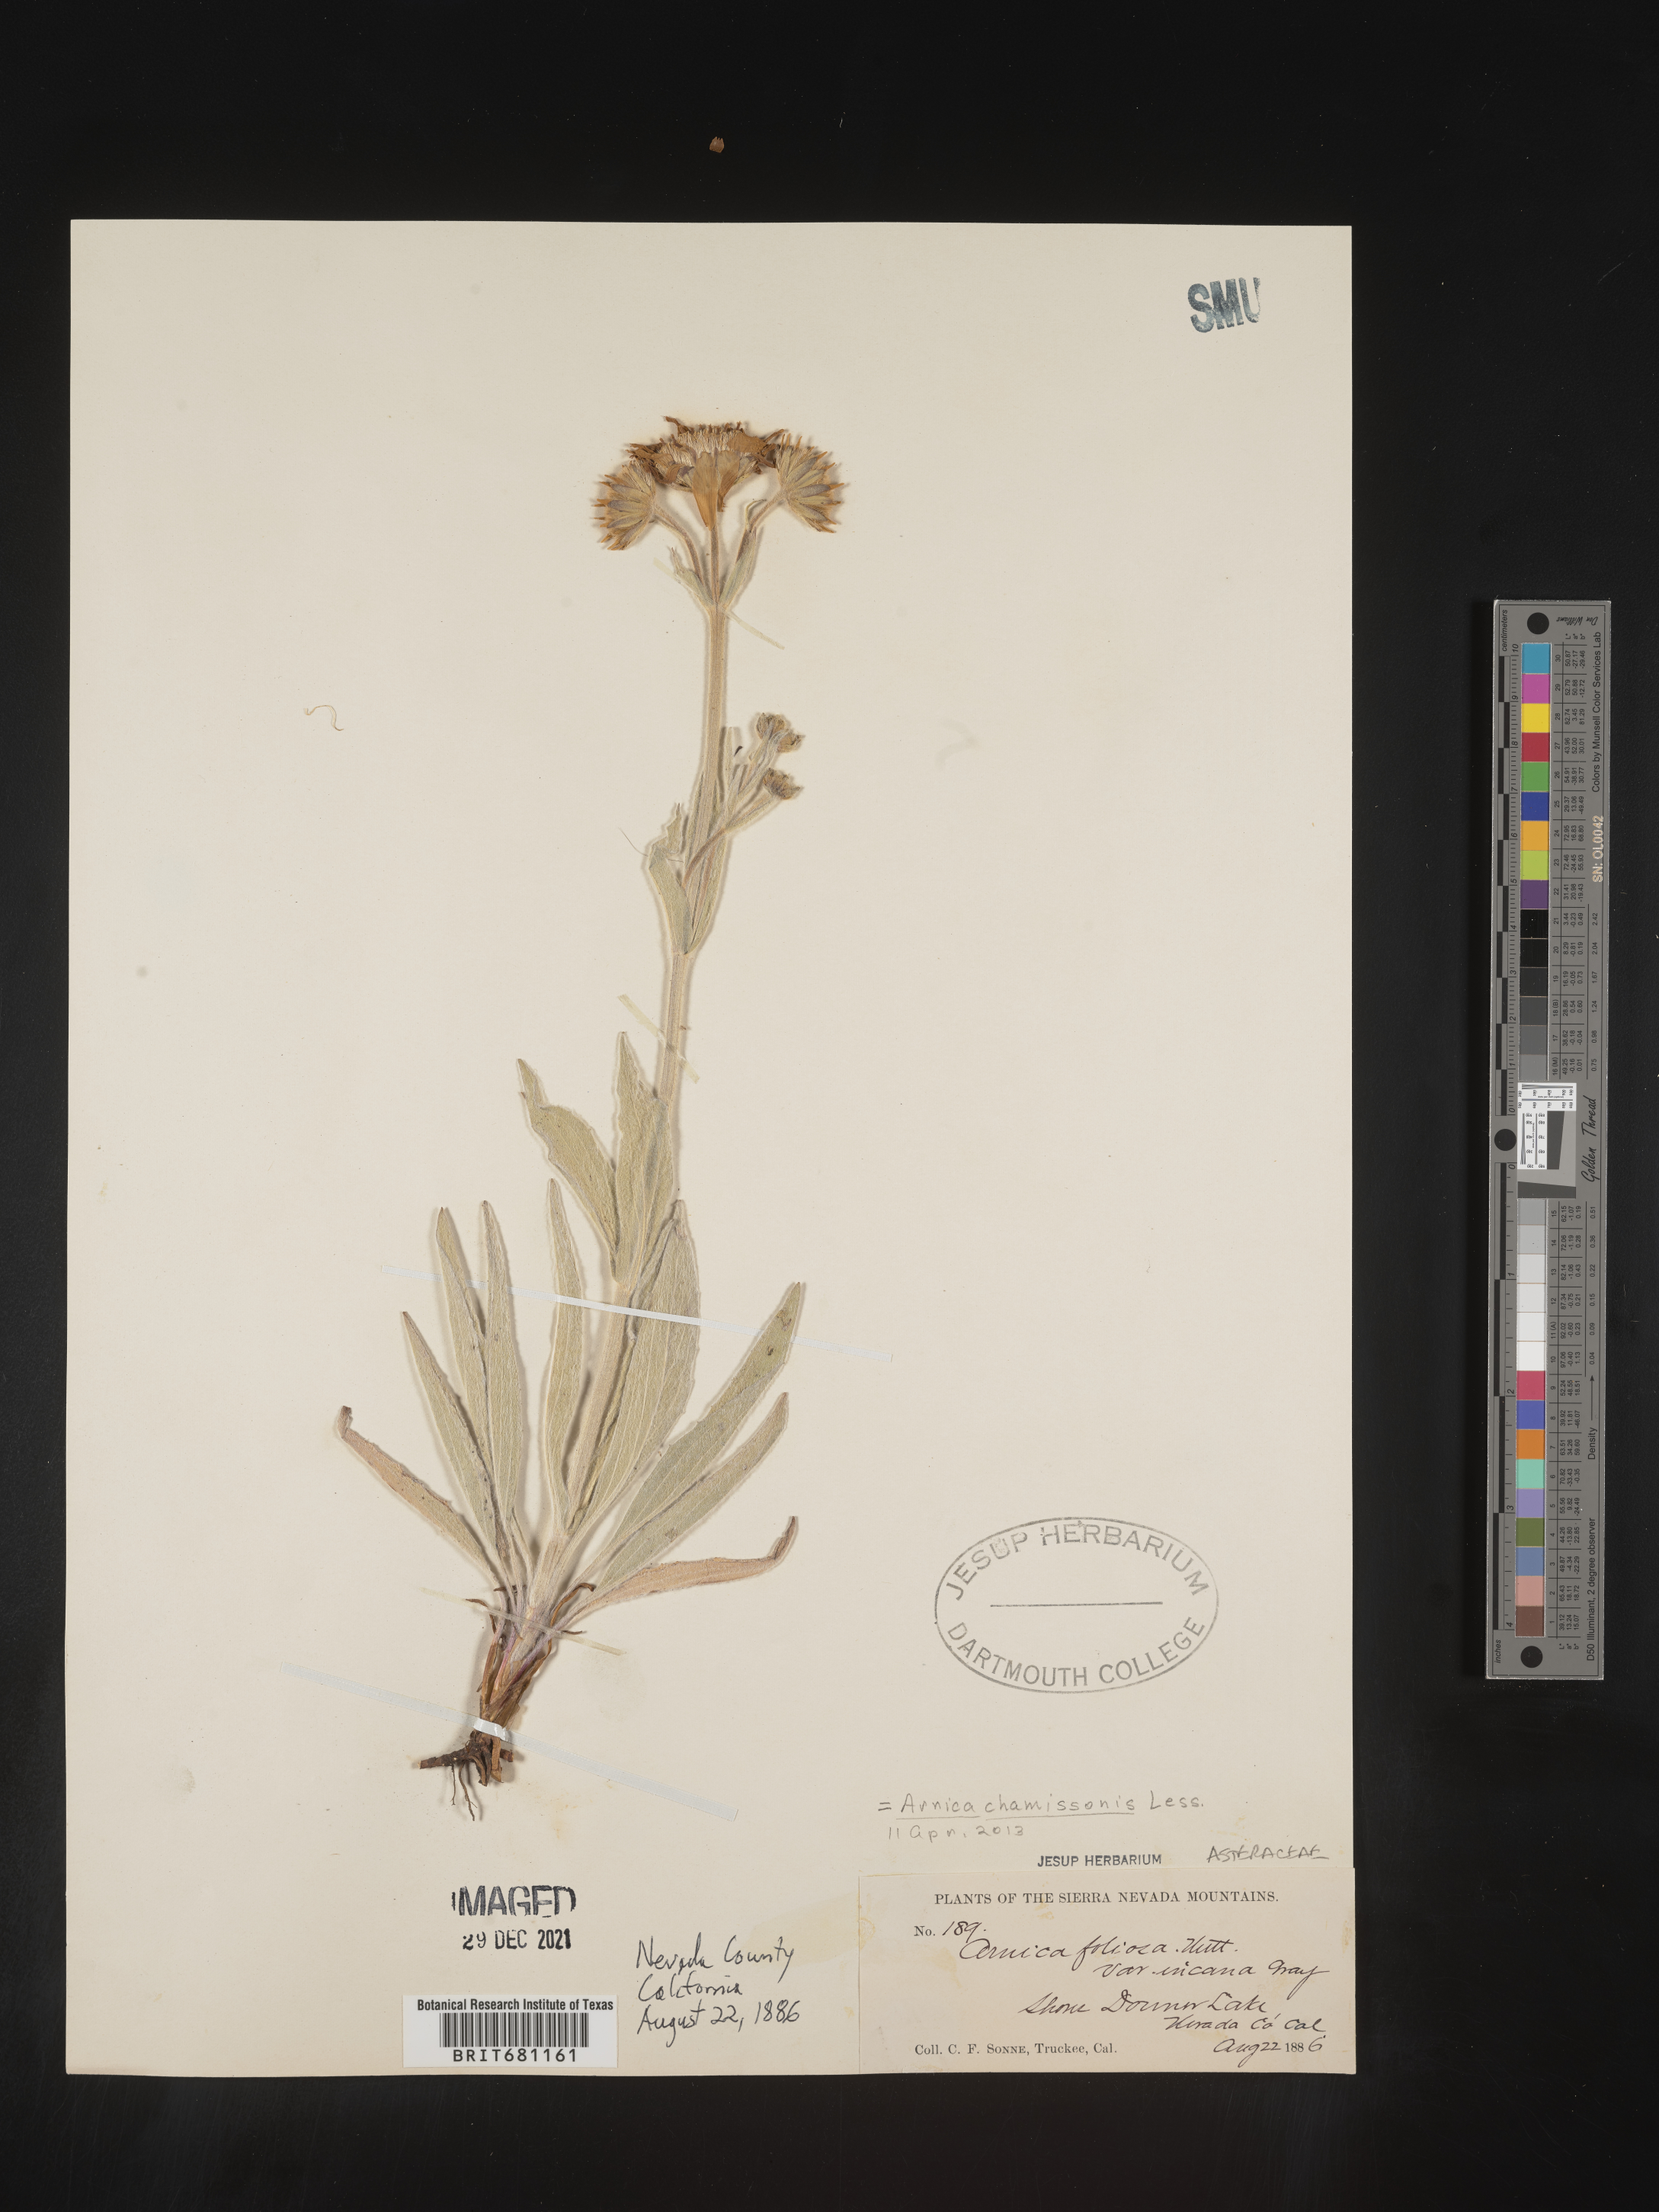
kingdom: Plantae
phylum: Tracheophyta
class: Magnoliopsida
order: Asterales
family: Asteraceae
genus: Arnica
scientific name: Arnica chamissonis
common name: Leafy arnica
